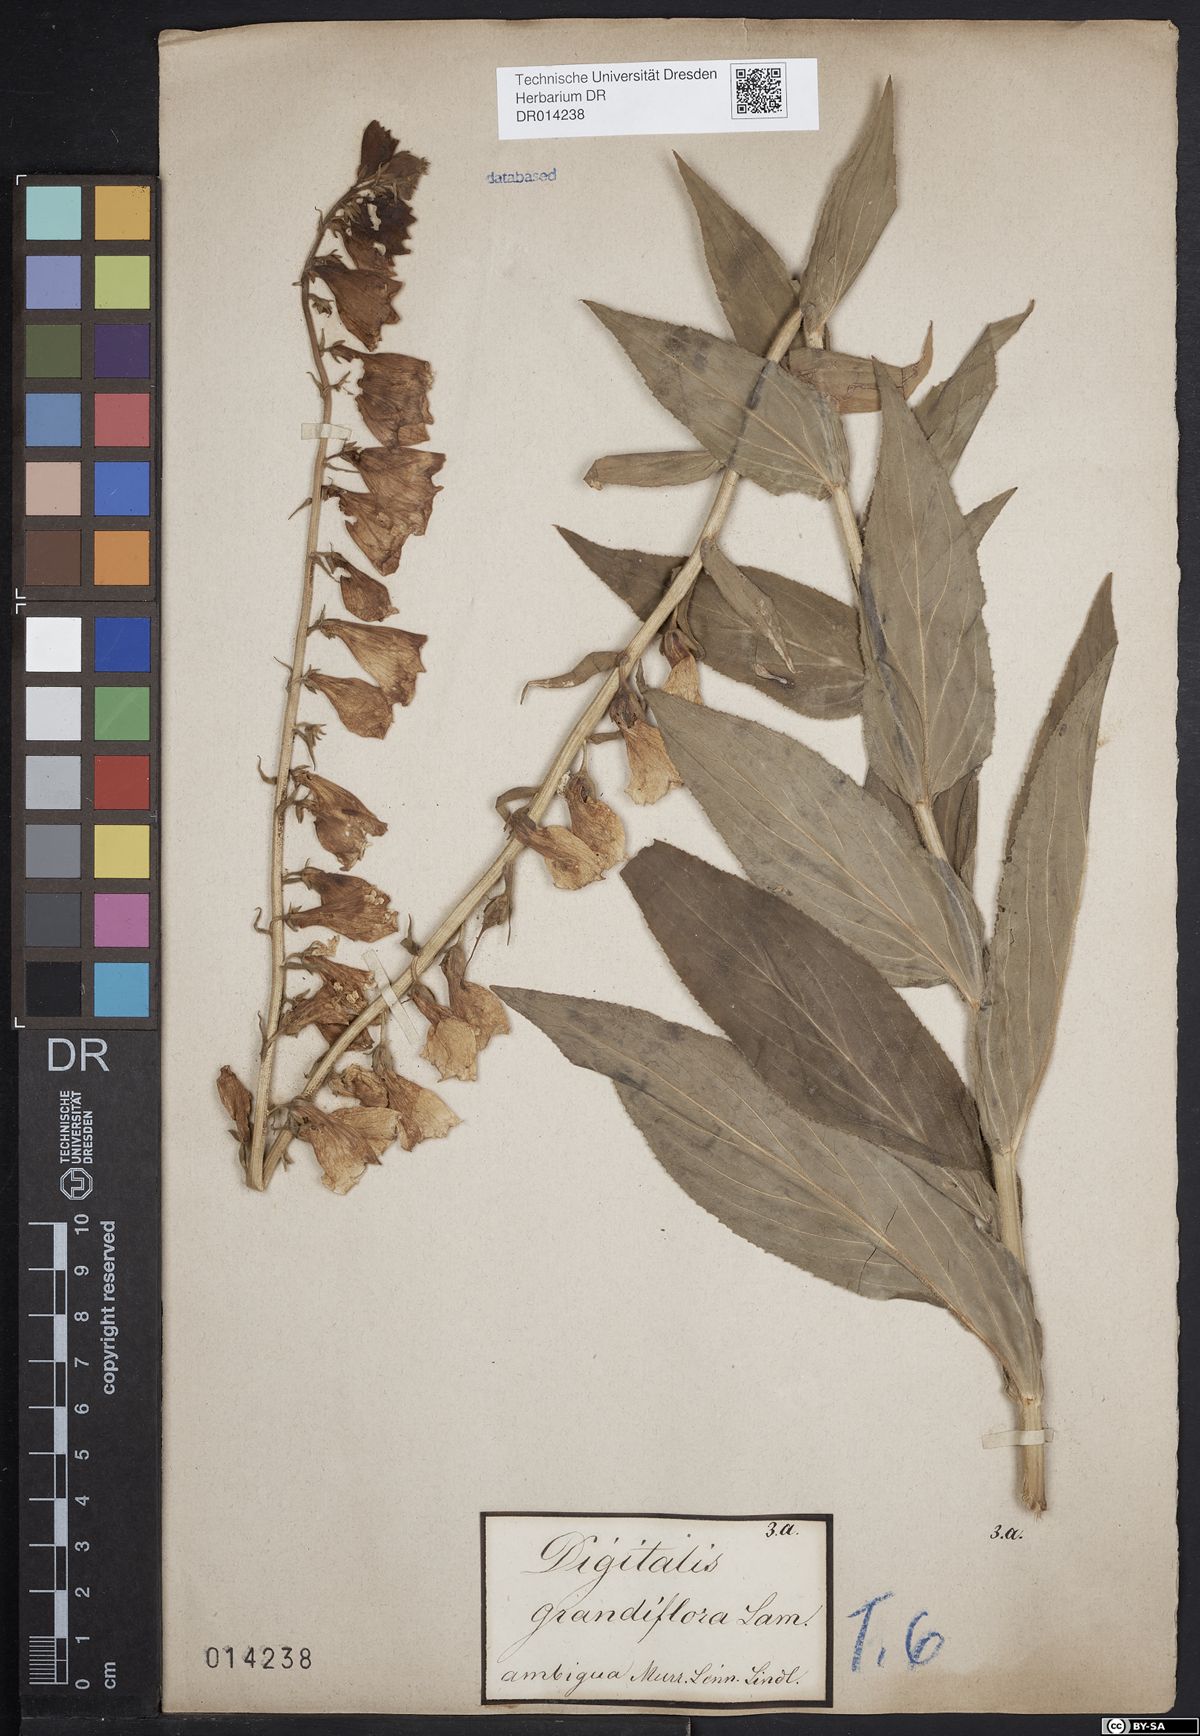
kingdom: Plantae
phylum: Tracheophyta
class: Magnoliopsida
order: Lamiales
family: Plantaginaceae
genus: Digitalis
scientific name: Digitalis grandiflora
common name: Yellow foxglove
